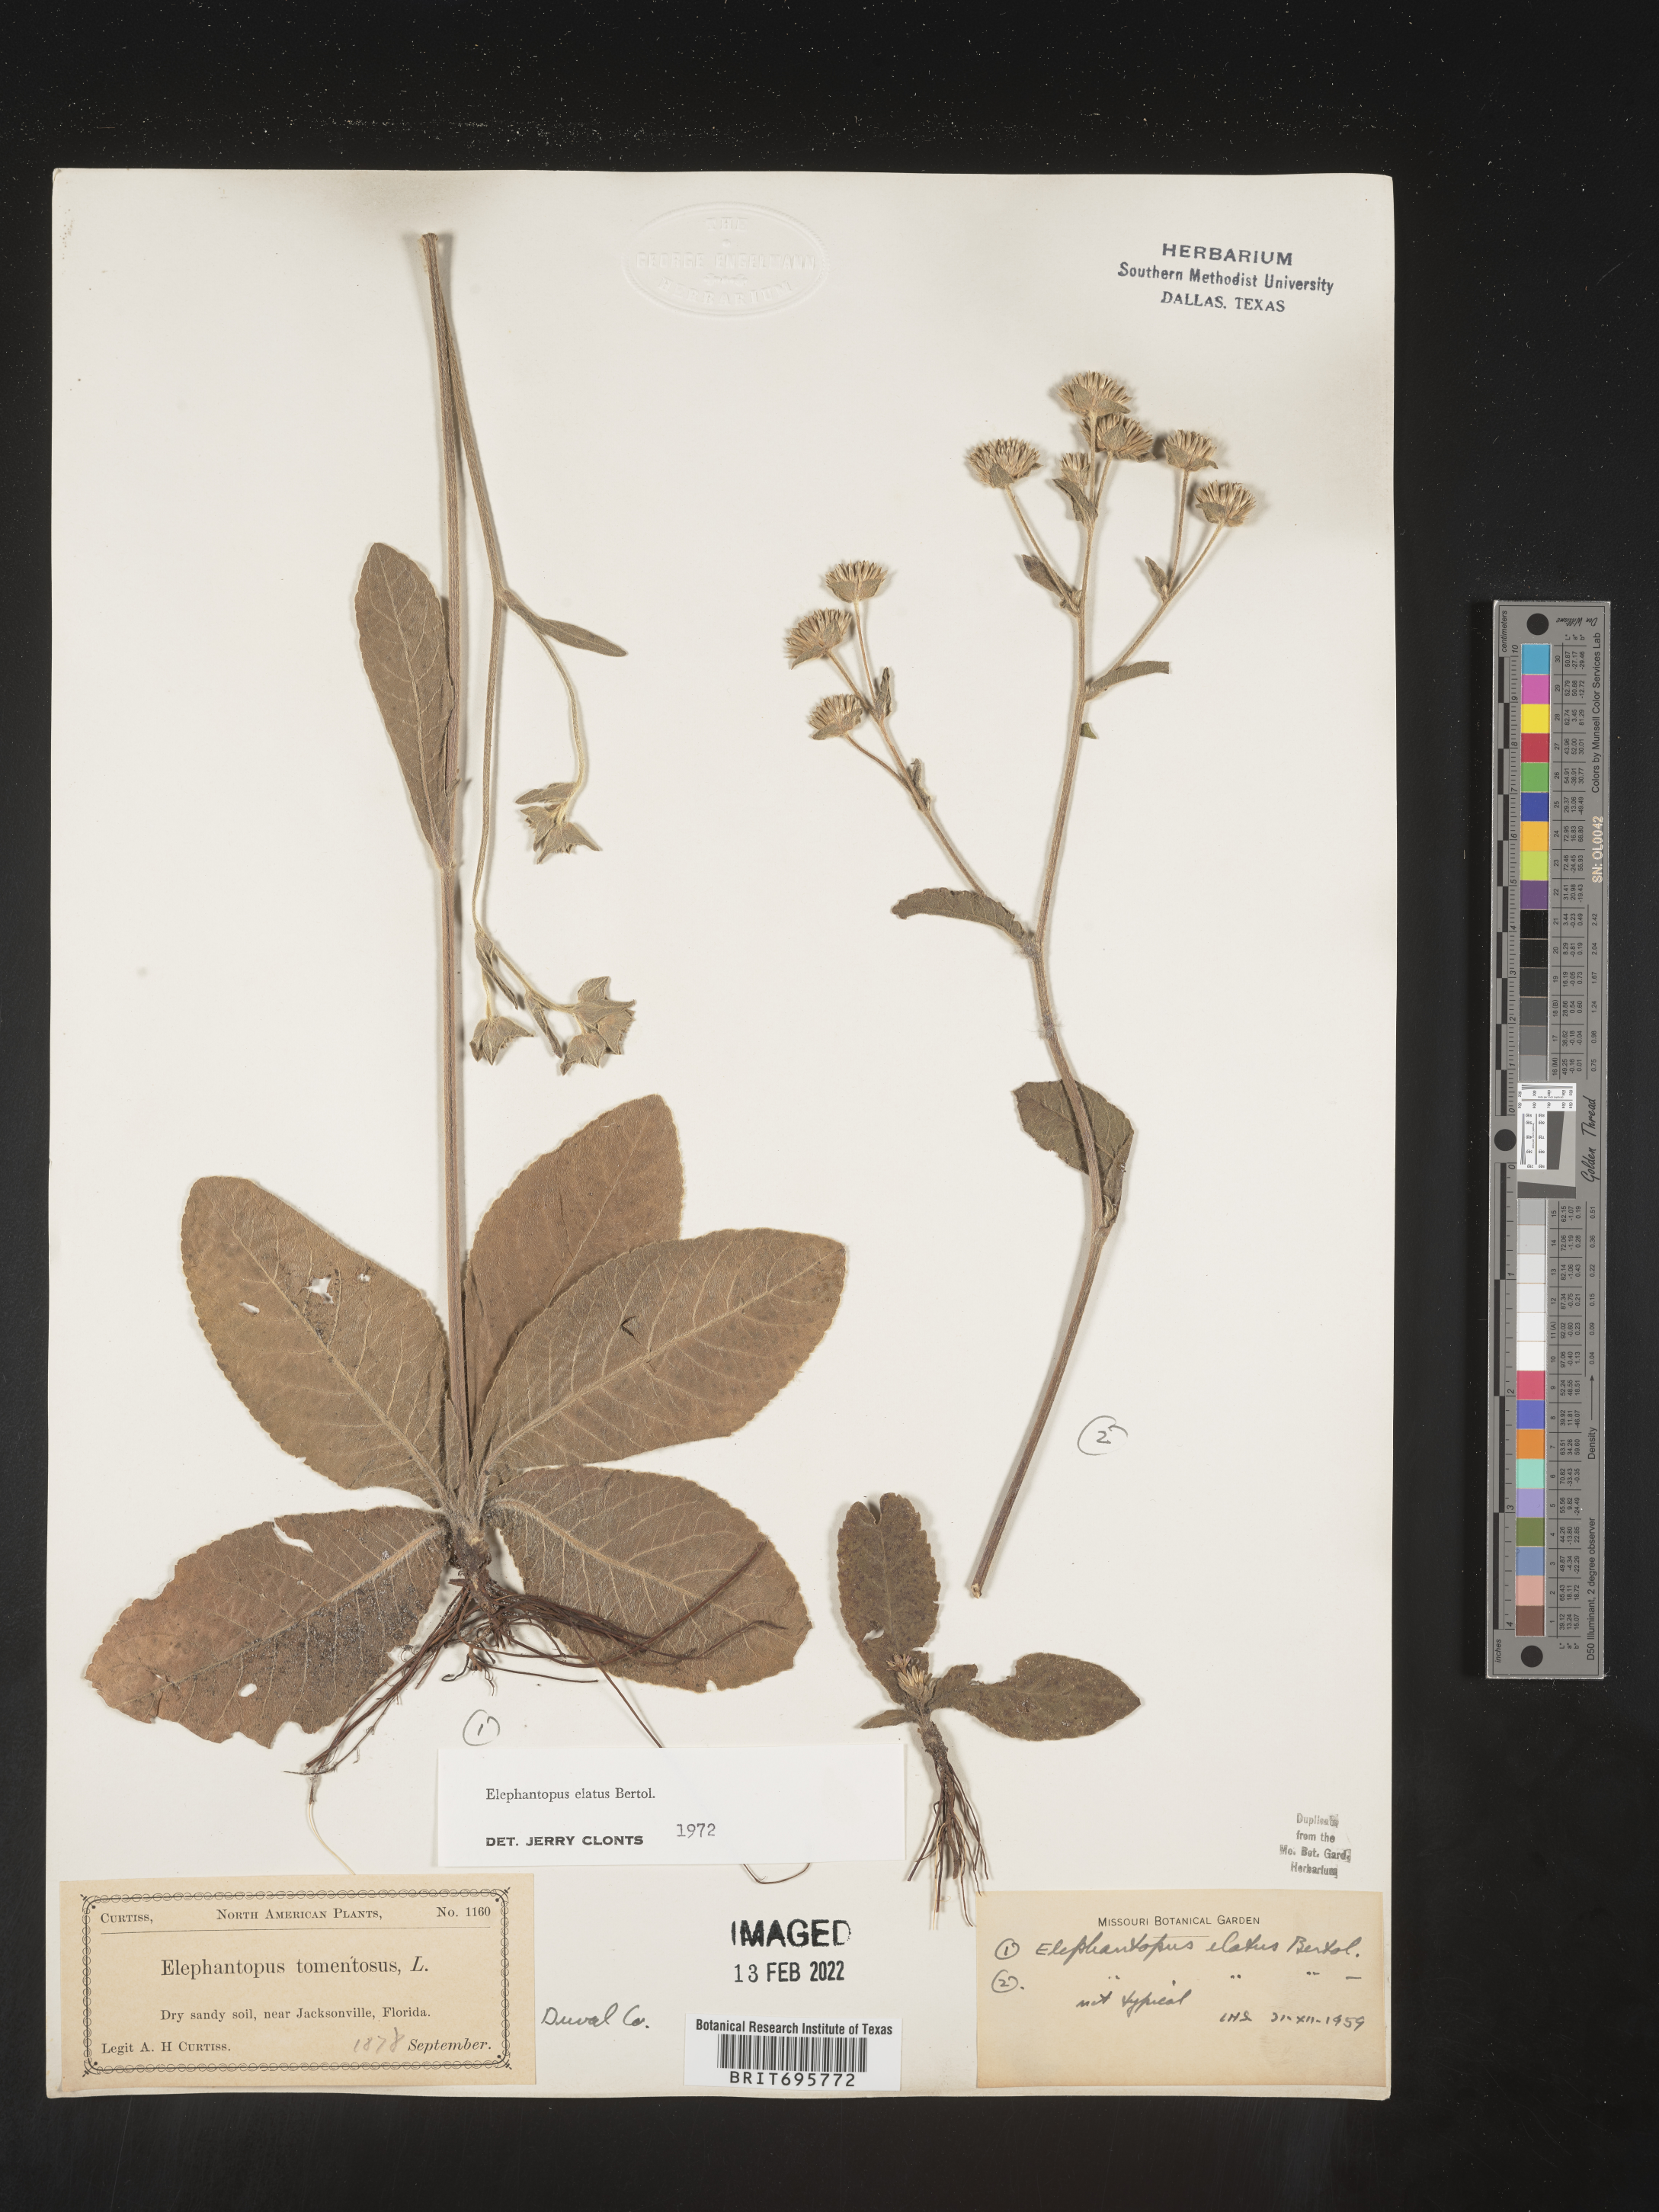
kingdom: Plantae
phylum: Tracheophyta
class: Magnoliopsida
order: Asterales
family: Asteraceae
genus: Elephantopus
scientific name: Elephantopus elatus
